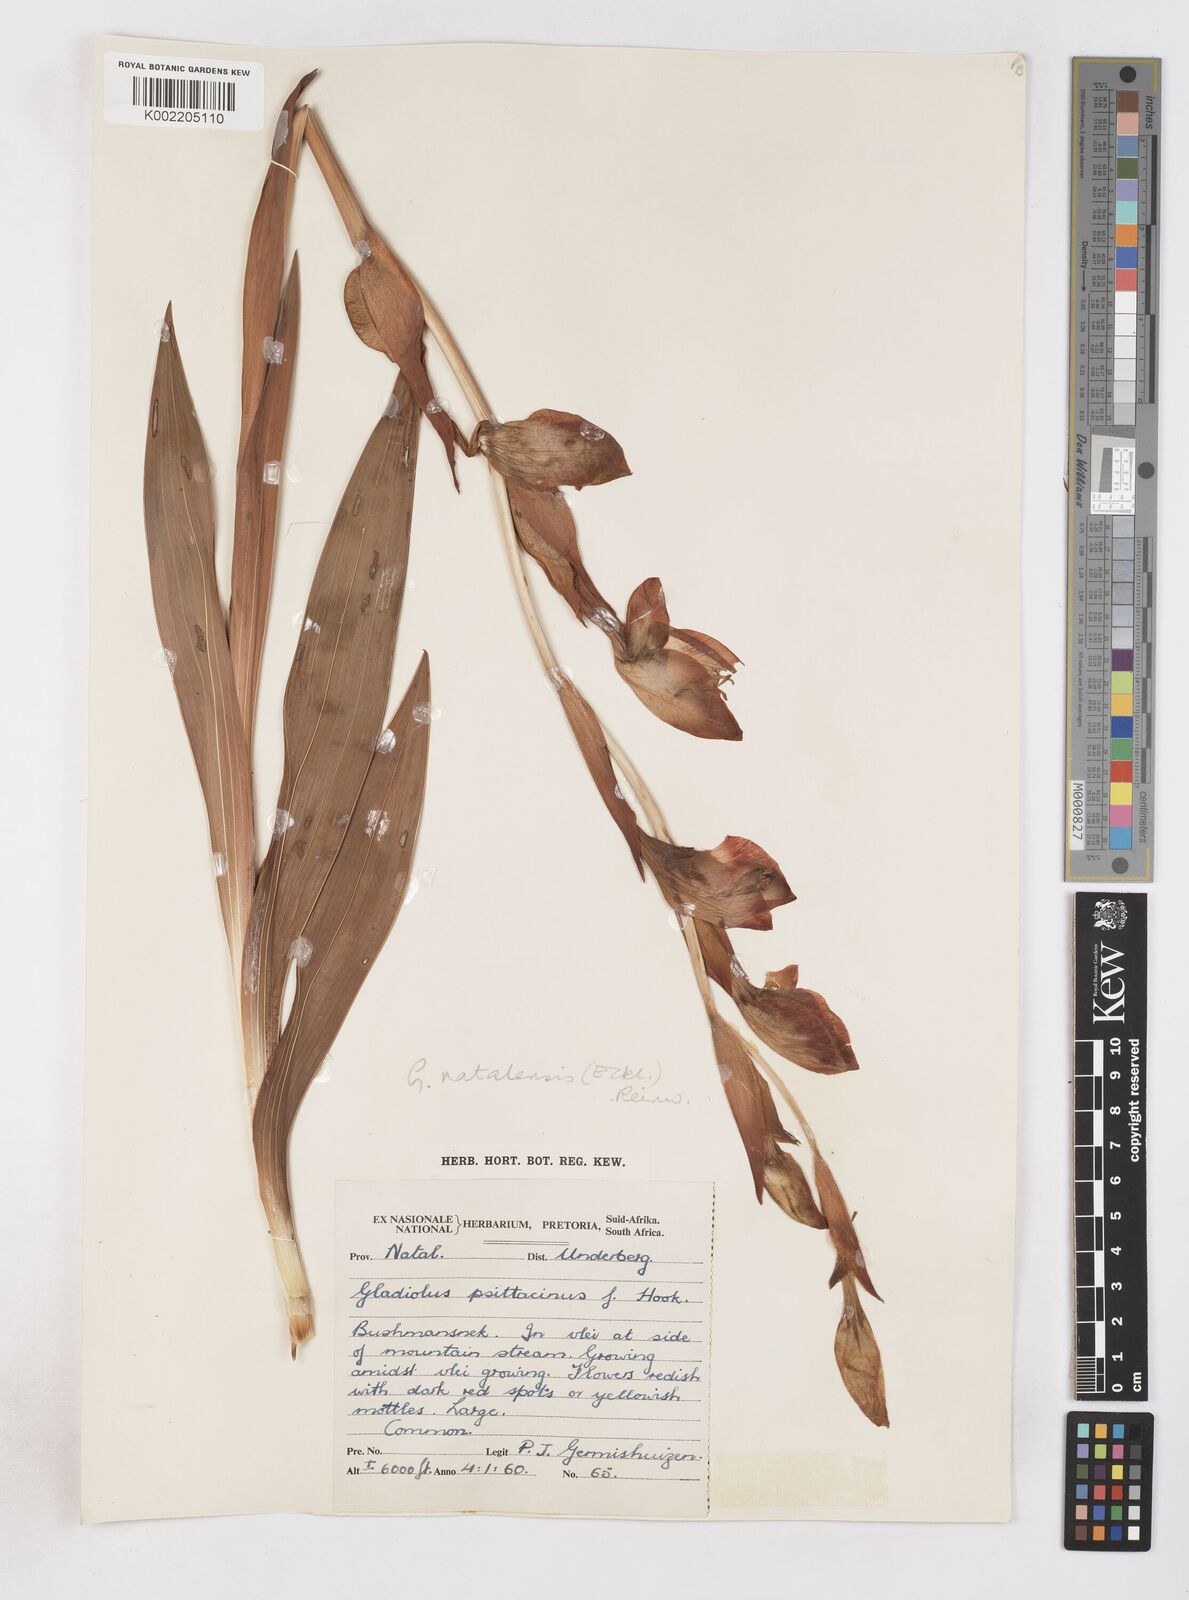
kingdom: Plantae
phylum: Tracheophyta
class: Liliopsida
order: Asparagales
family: Iridaceae
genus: Gladiolus
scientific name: Gladiolus dalenii
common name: Cornflag
